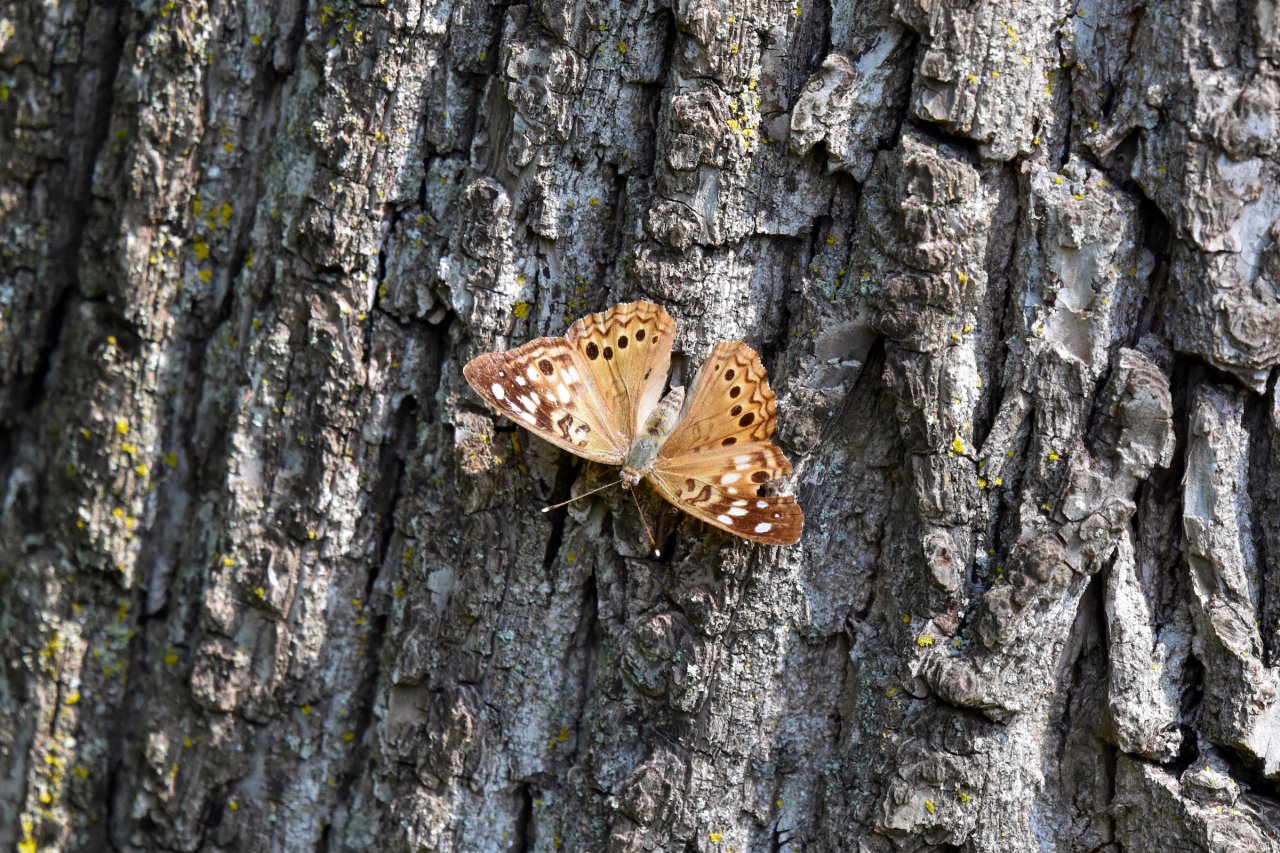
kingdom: Animalia
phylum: Arthropoda
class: Insecta
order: Lepidoptera
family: Nymphalidae
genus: Asterocampa
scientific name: Asterocampa celtis
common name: Hackberry Emperor
